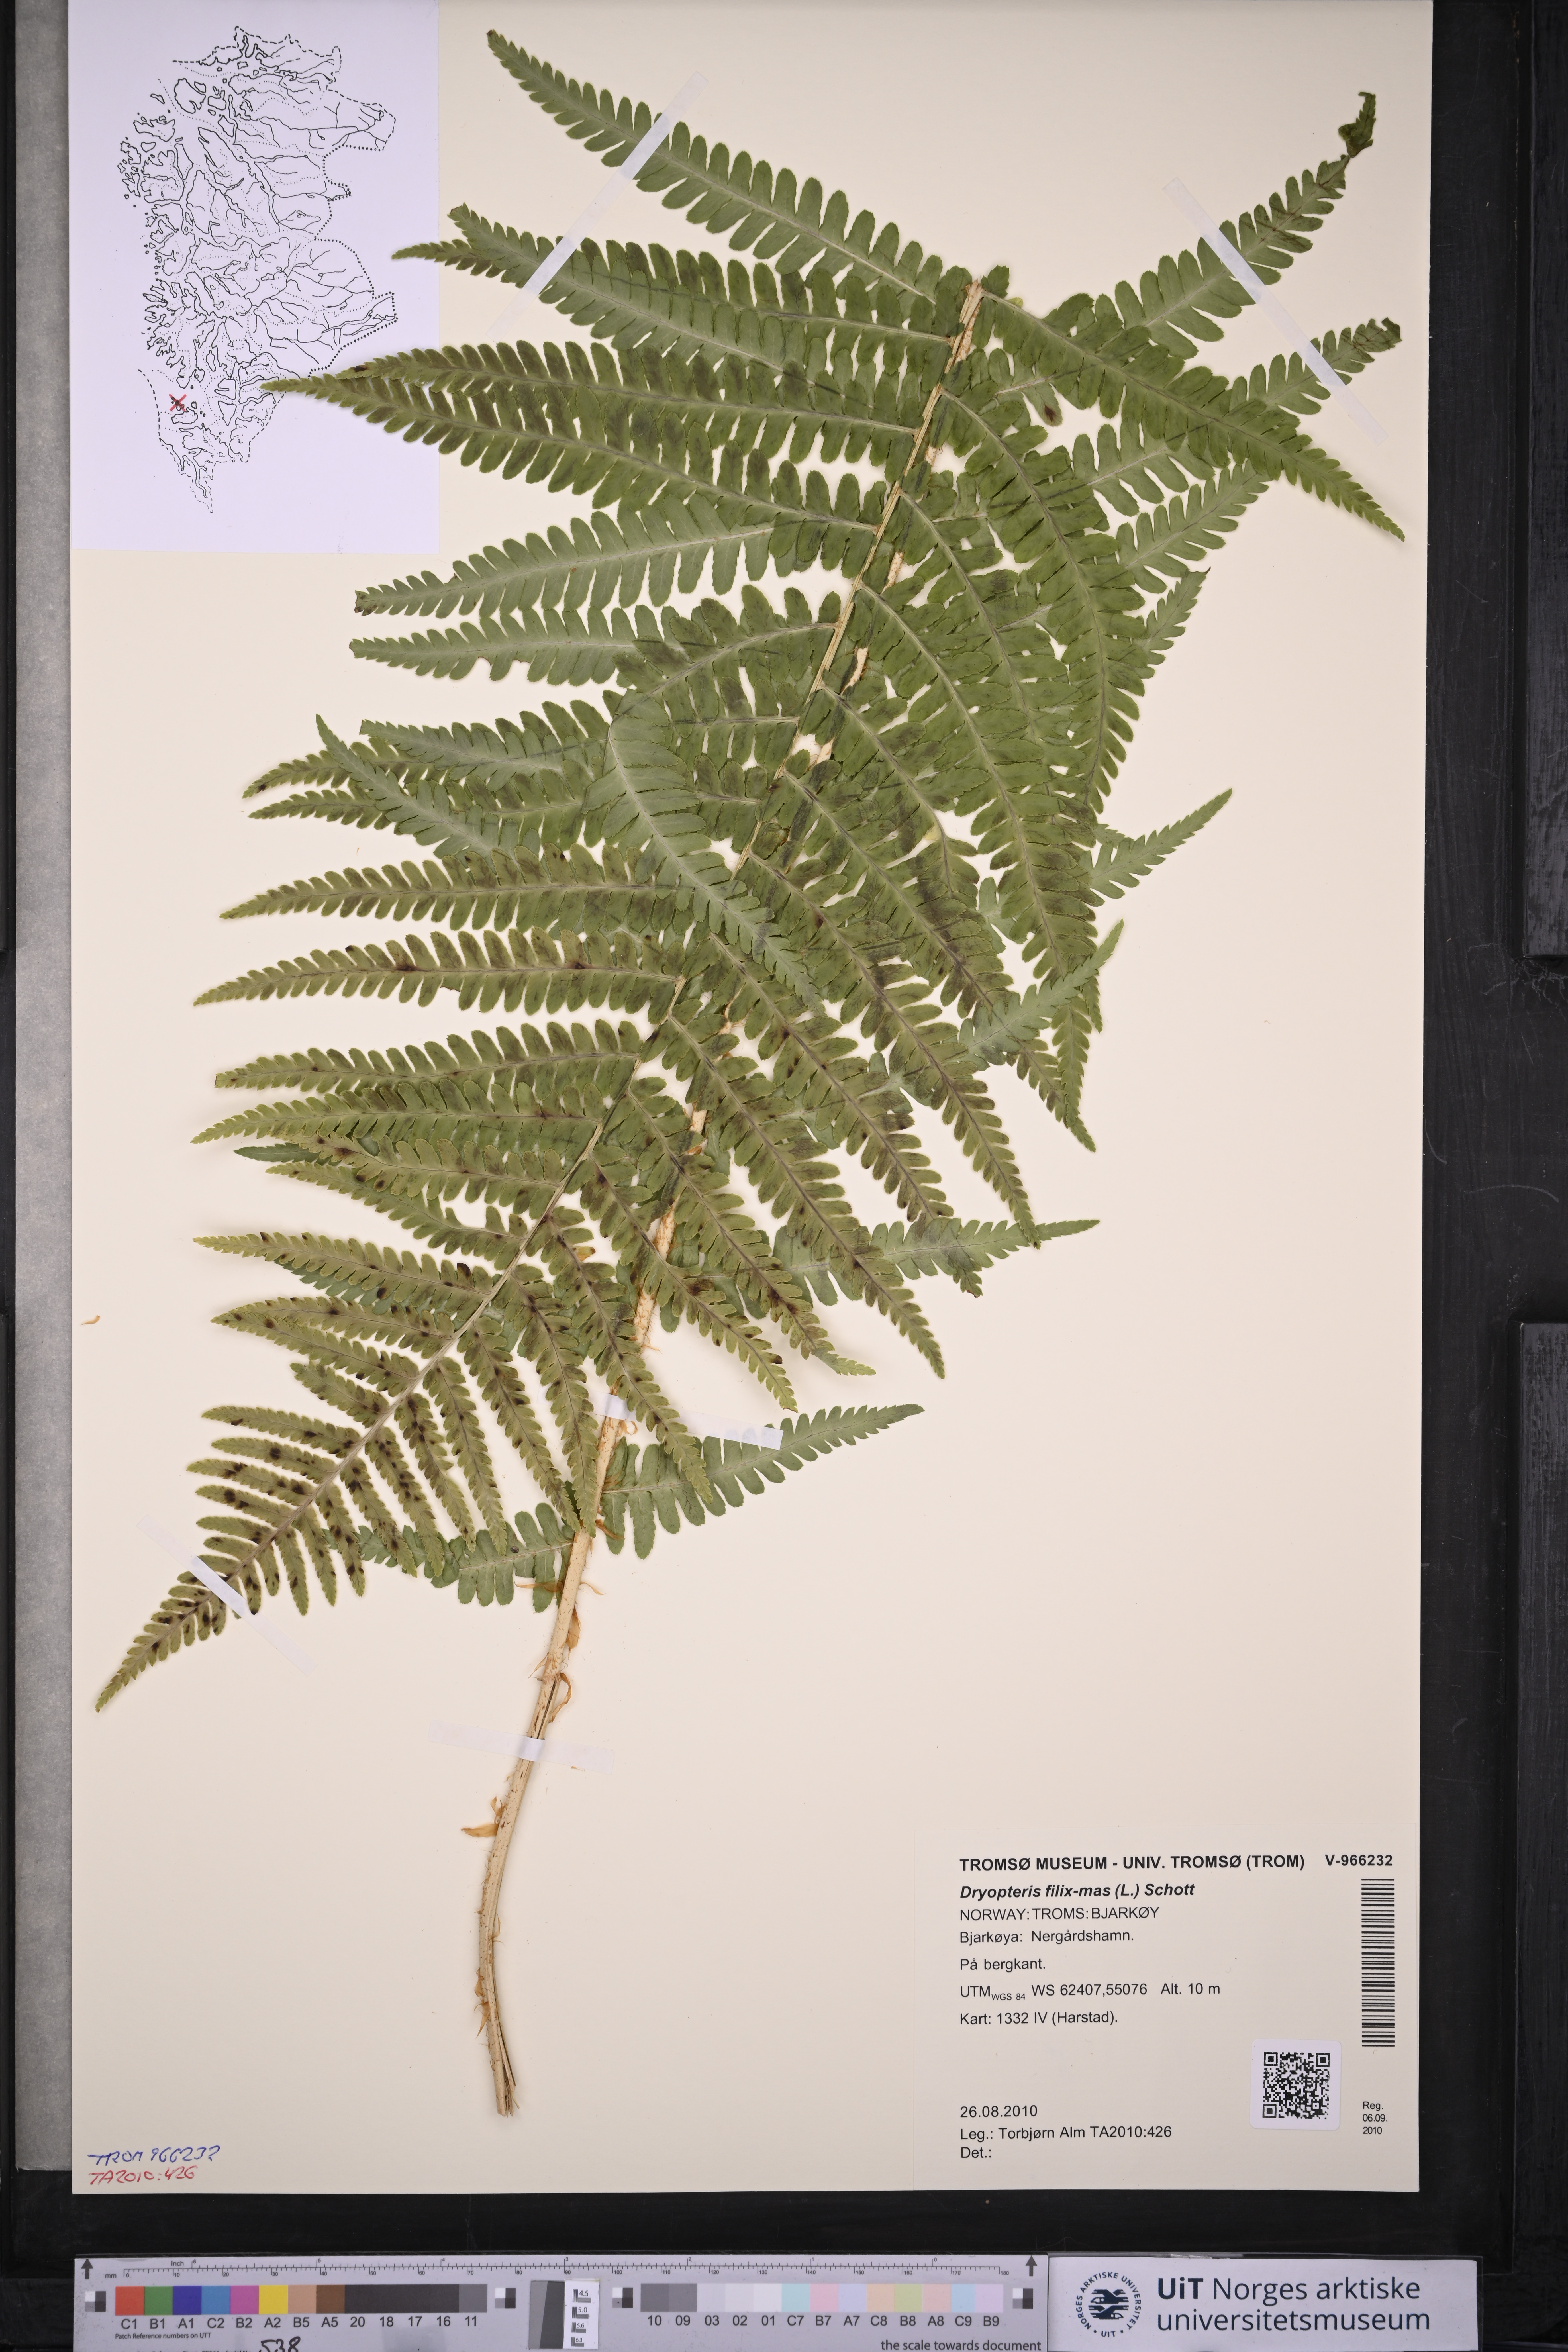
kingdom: Plantae
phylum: Tracheophyta
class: Polypodiopsida
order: Polypodiales
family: Dryopteridaceae
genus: Dryopteris
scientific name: Dryopteris filix-mas
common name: Male fern
